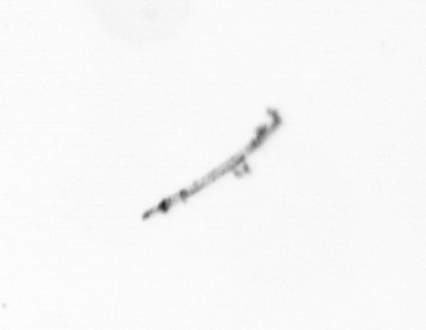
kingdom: Chromista
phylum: Ochrophyta
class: Bacillariophyceae
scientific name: Bacillariophyceae
